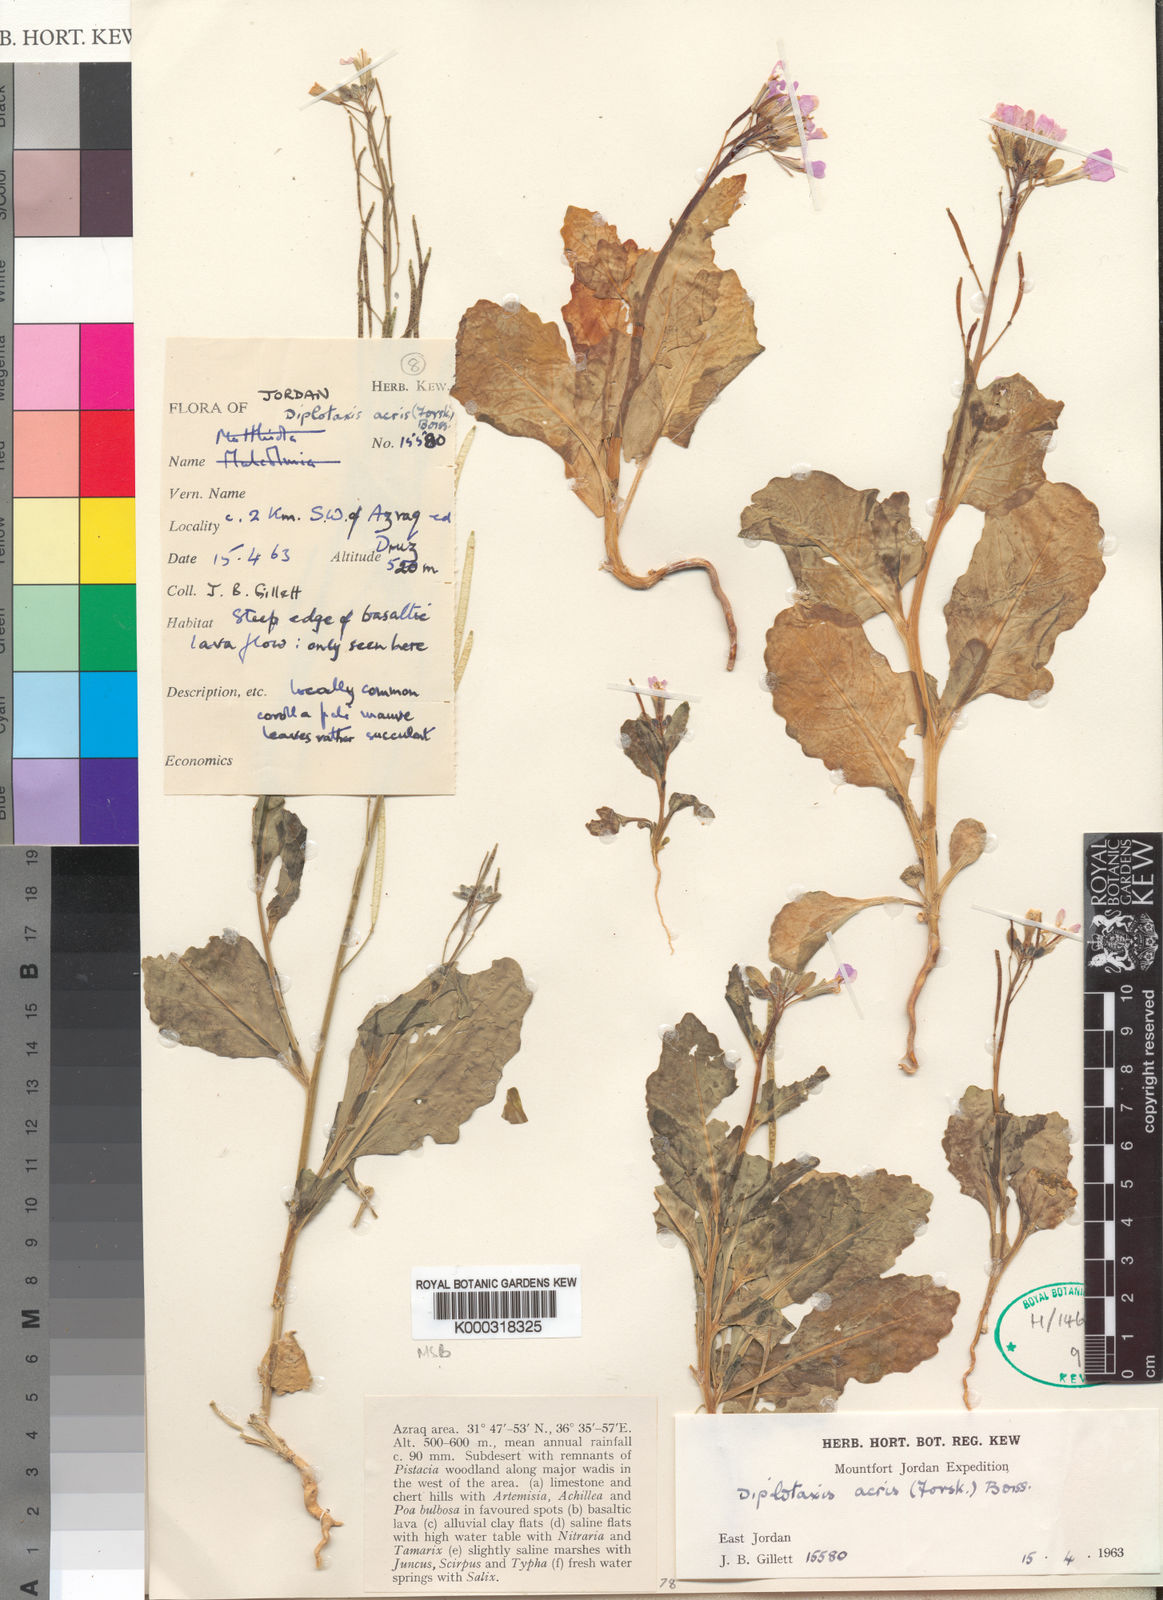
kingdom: Plantae
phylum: Tracheophyta
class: Magnoliopsida
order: Brassicales
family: Brassicaceae
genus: Diplotaxis
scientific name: Diplotaxis acris
